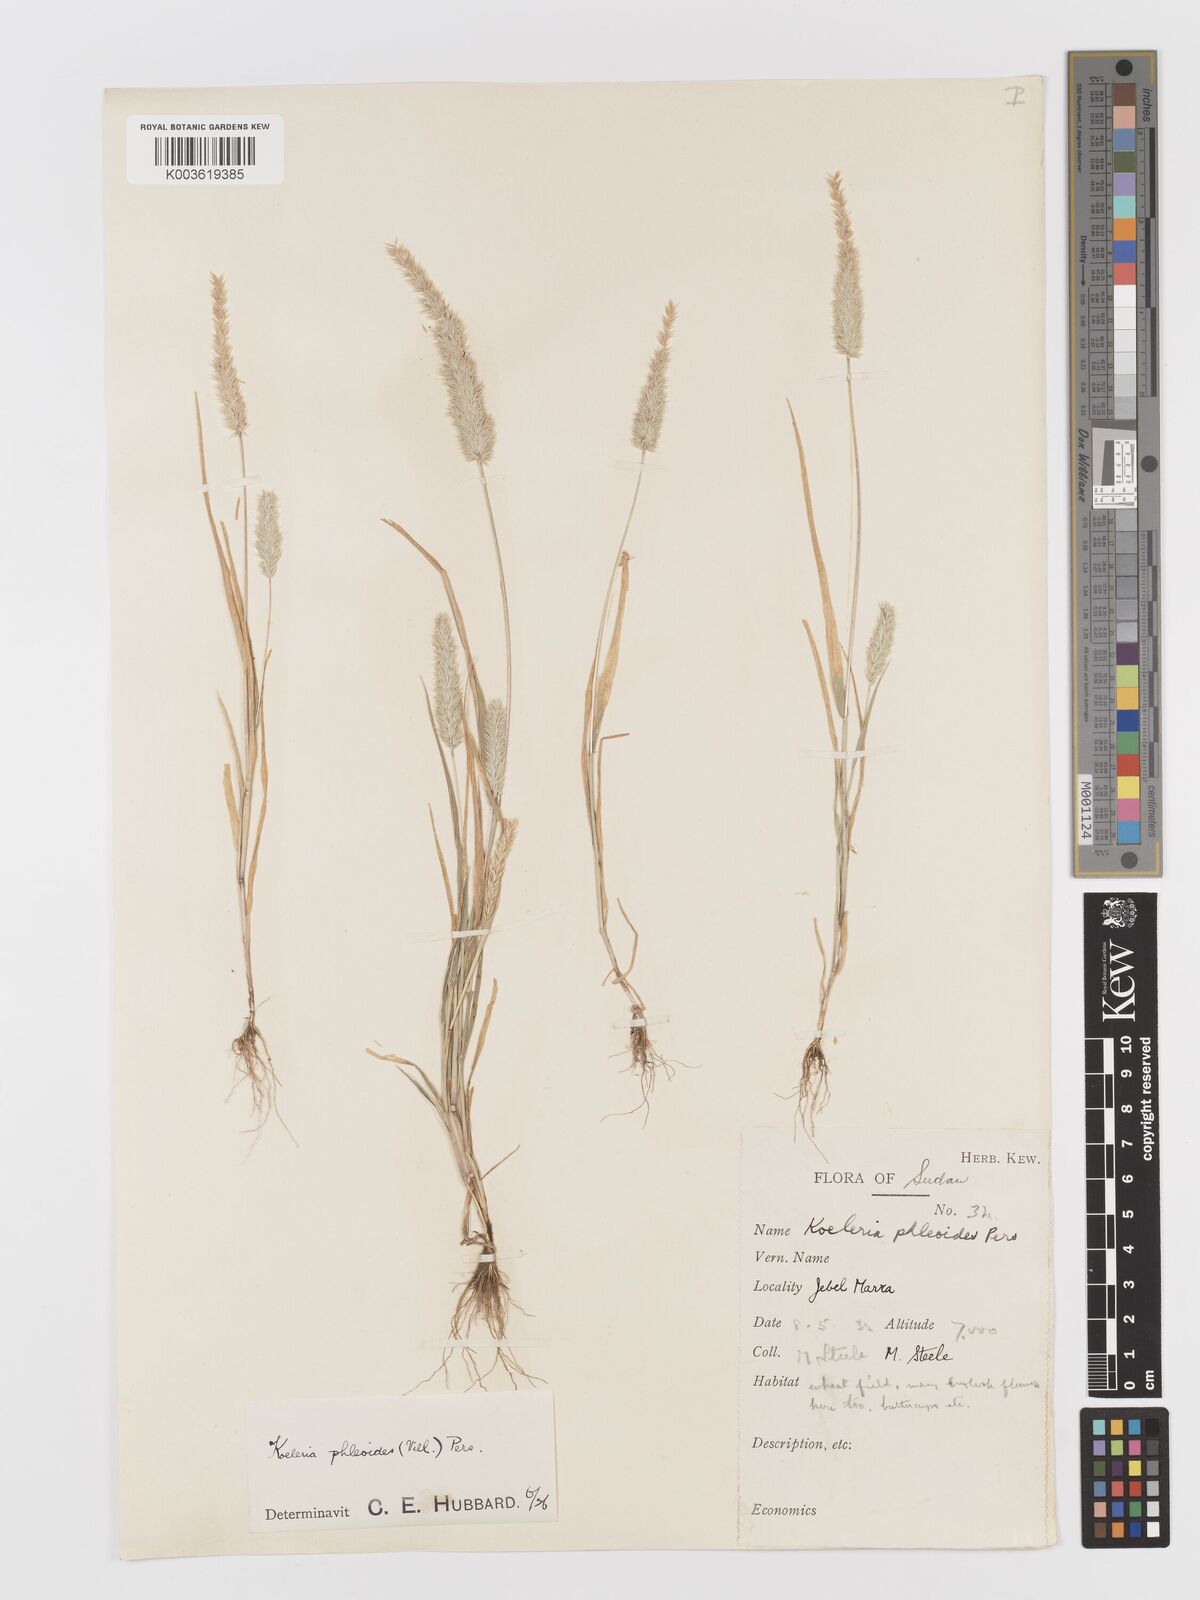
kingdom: Plantae
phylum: Tracheophyta
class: Liliopsida
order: Poales
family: Poaceae
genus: Rostraria
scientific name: Rostraria cristata
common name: Mediterranean hair-grass
